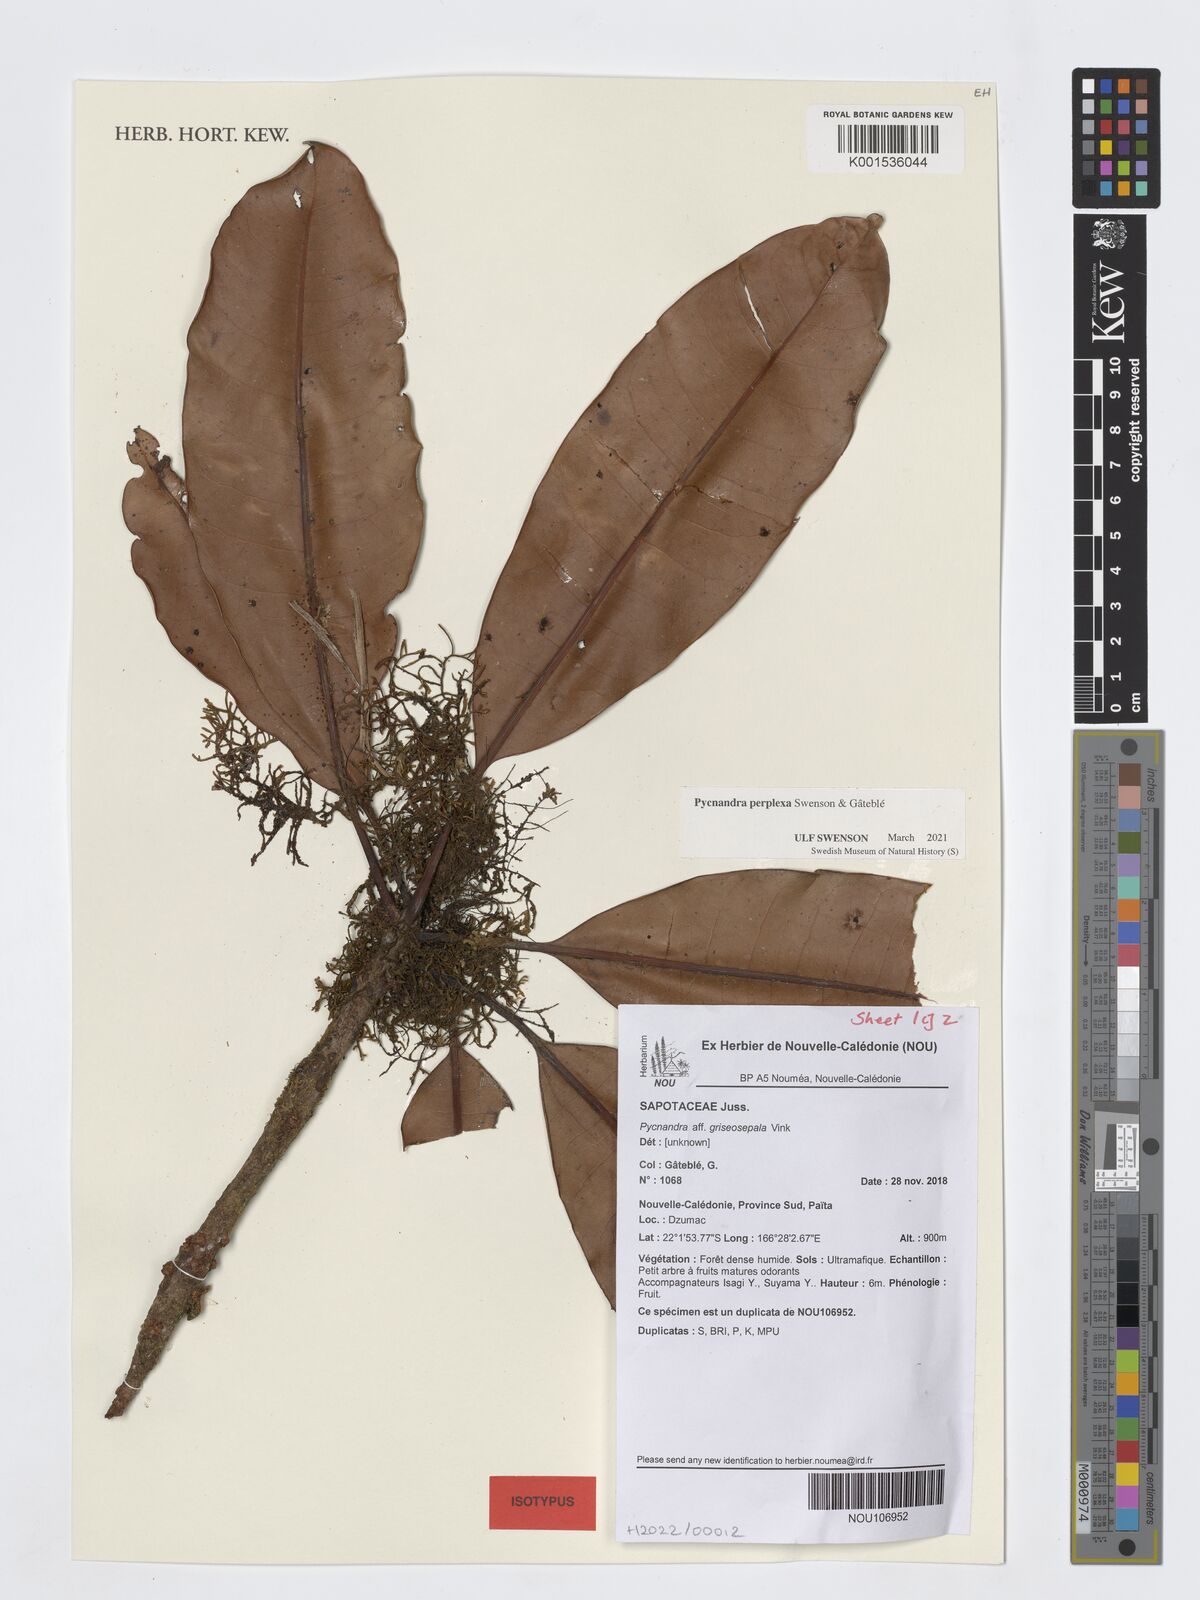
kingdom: Plantae
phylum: Tracheophyta
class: Magnoliopsida
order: Ericales
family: Sapotaceae
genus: Pycnandra
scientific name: Pycnandra
